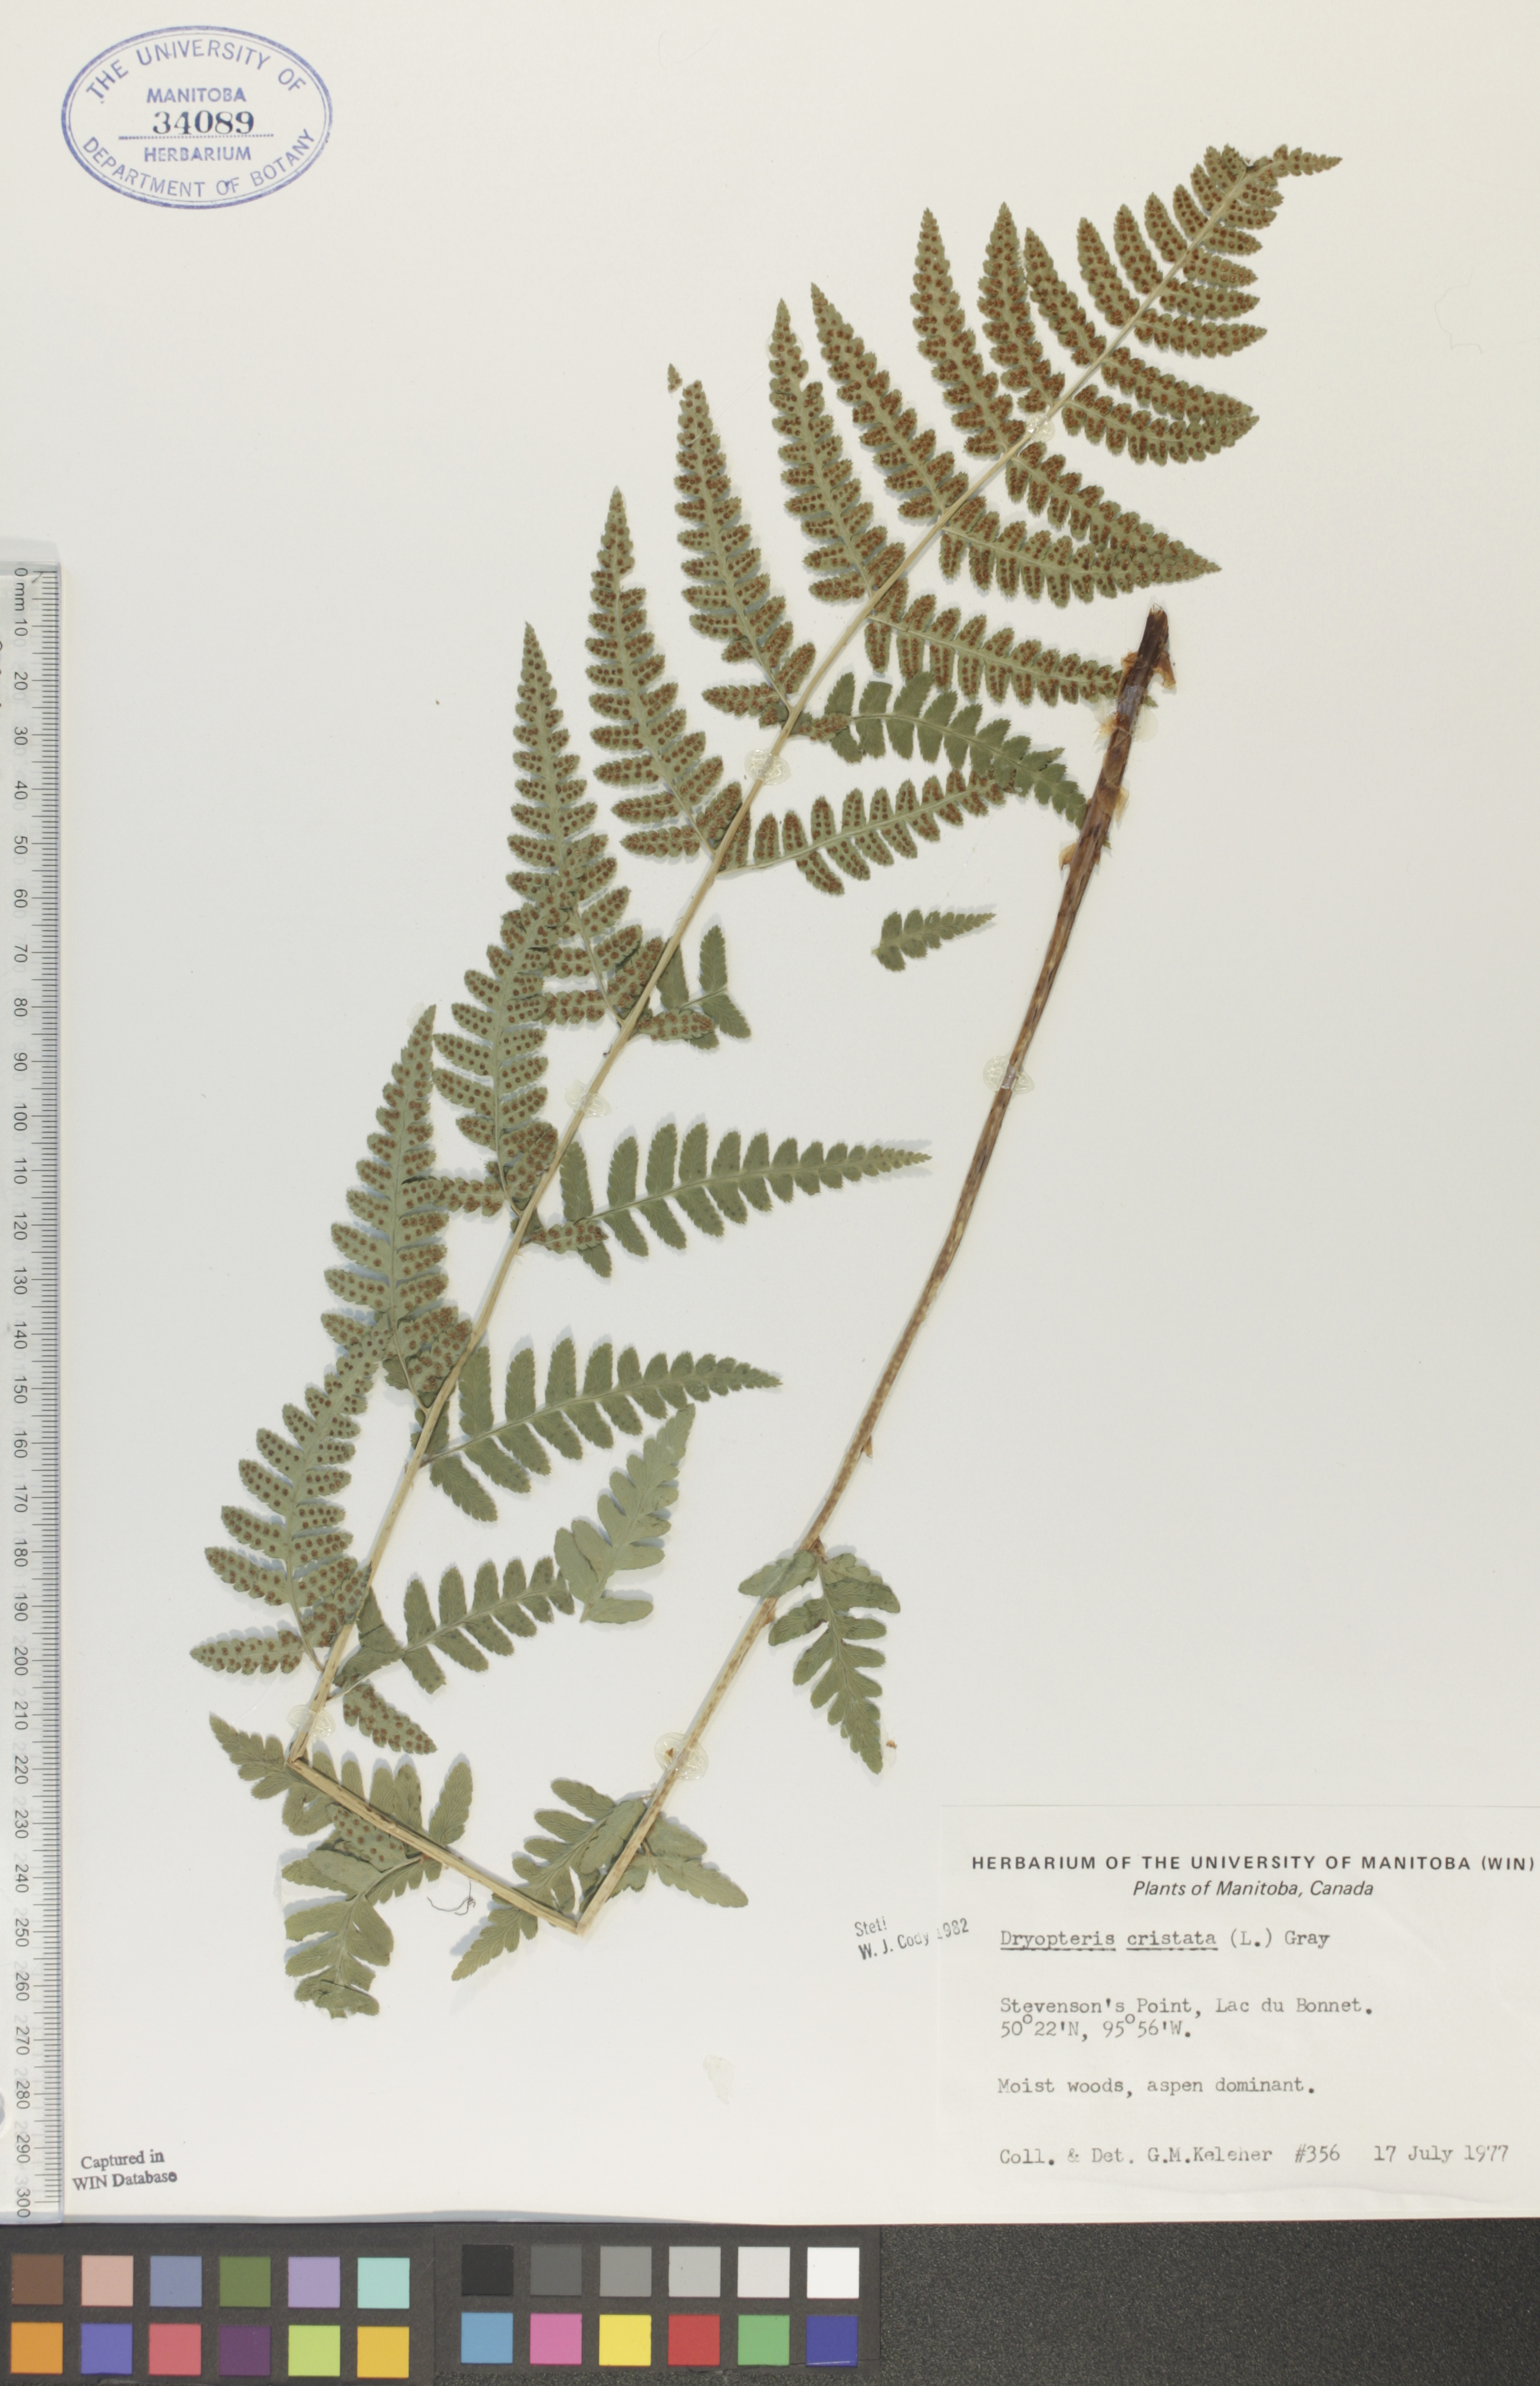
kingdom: Plantae
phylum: Tracheophyta
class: Polypodiopsida
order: Polypodiales
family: Dryopteridaceae
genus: Dryopteris
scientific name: Dryopteris cristata
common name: Crested wood fern
